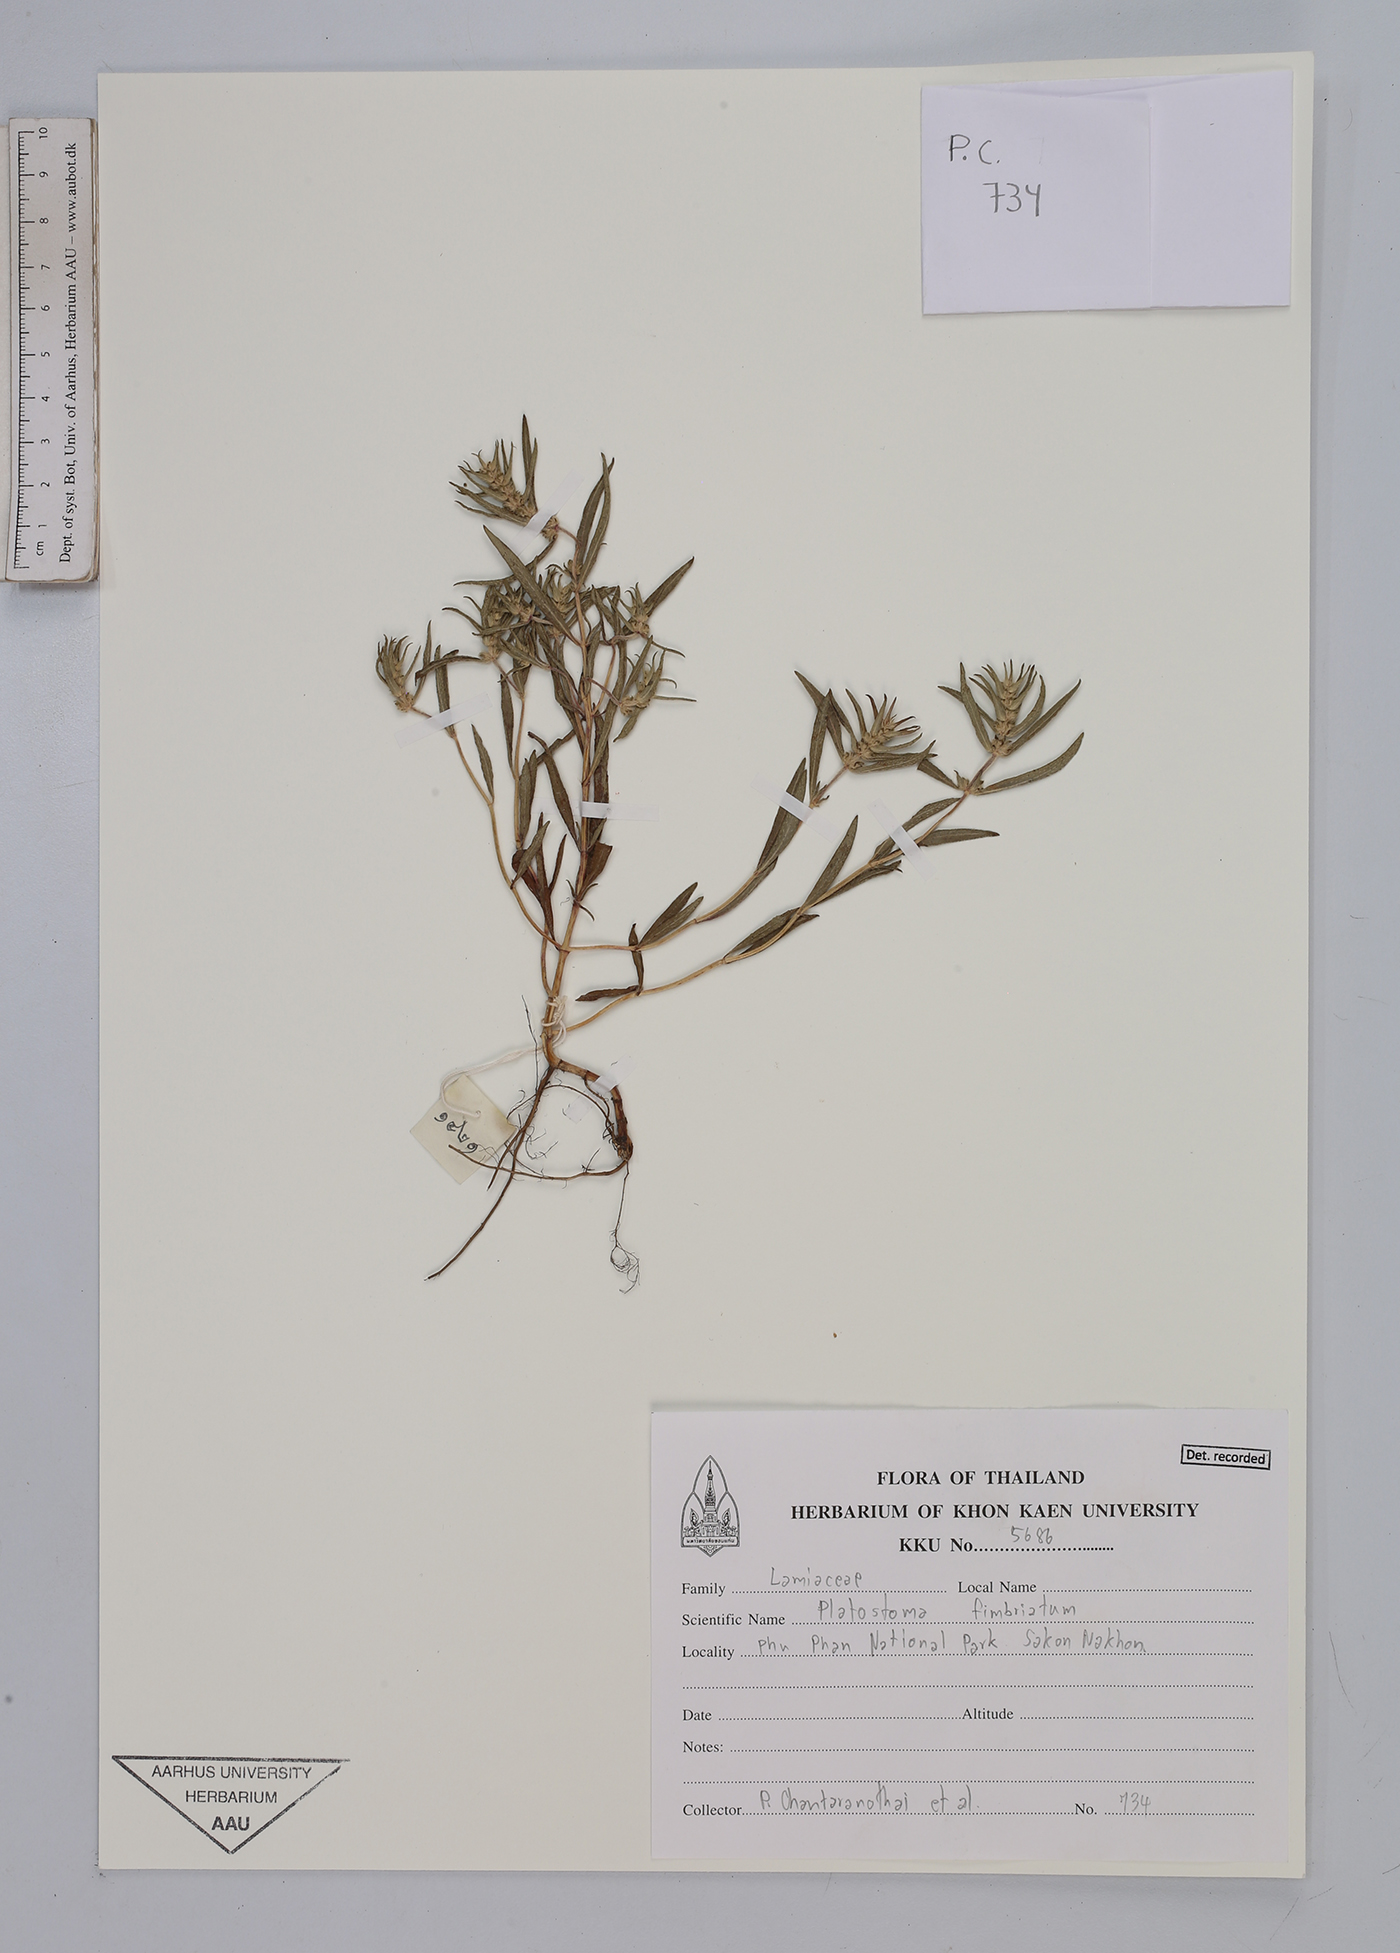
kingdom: Plantae
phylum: Tracheophyta
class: Magnoliopsida
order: Lamiales
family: Lamiaceae
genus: Platostoma
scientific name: Platostoma fimbriatum
